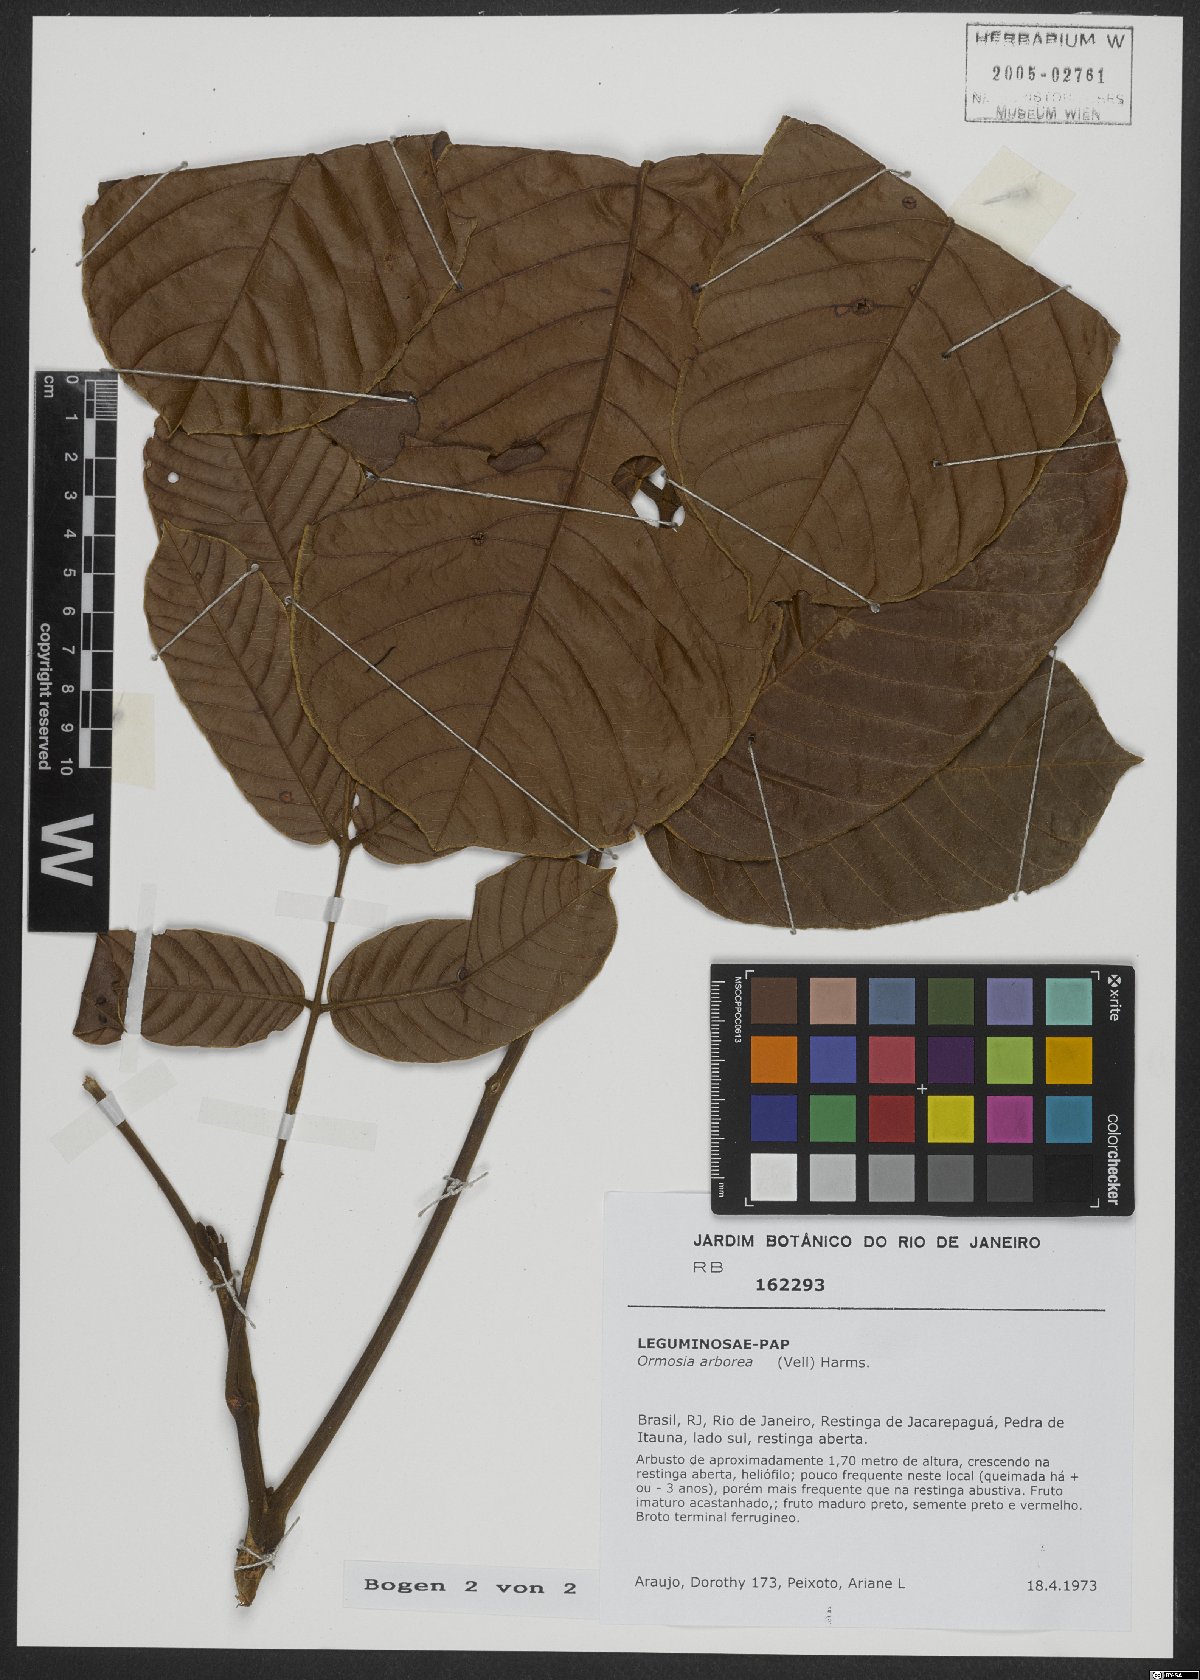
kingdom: Plantae
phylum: Tracheophyta
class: Magnoliopsida
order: Fabales
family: Fabaceae
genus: Ormosia
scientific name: Ormosia arborea
